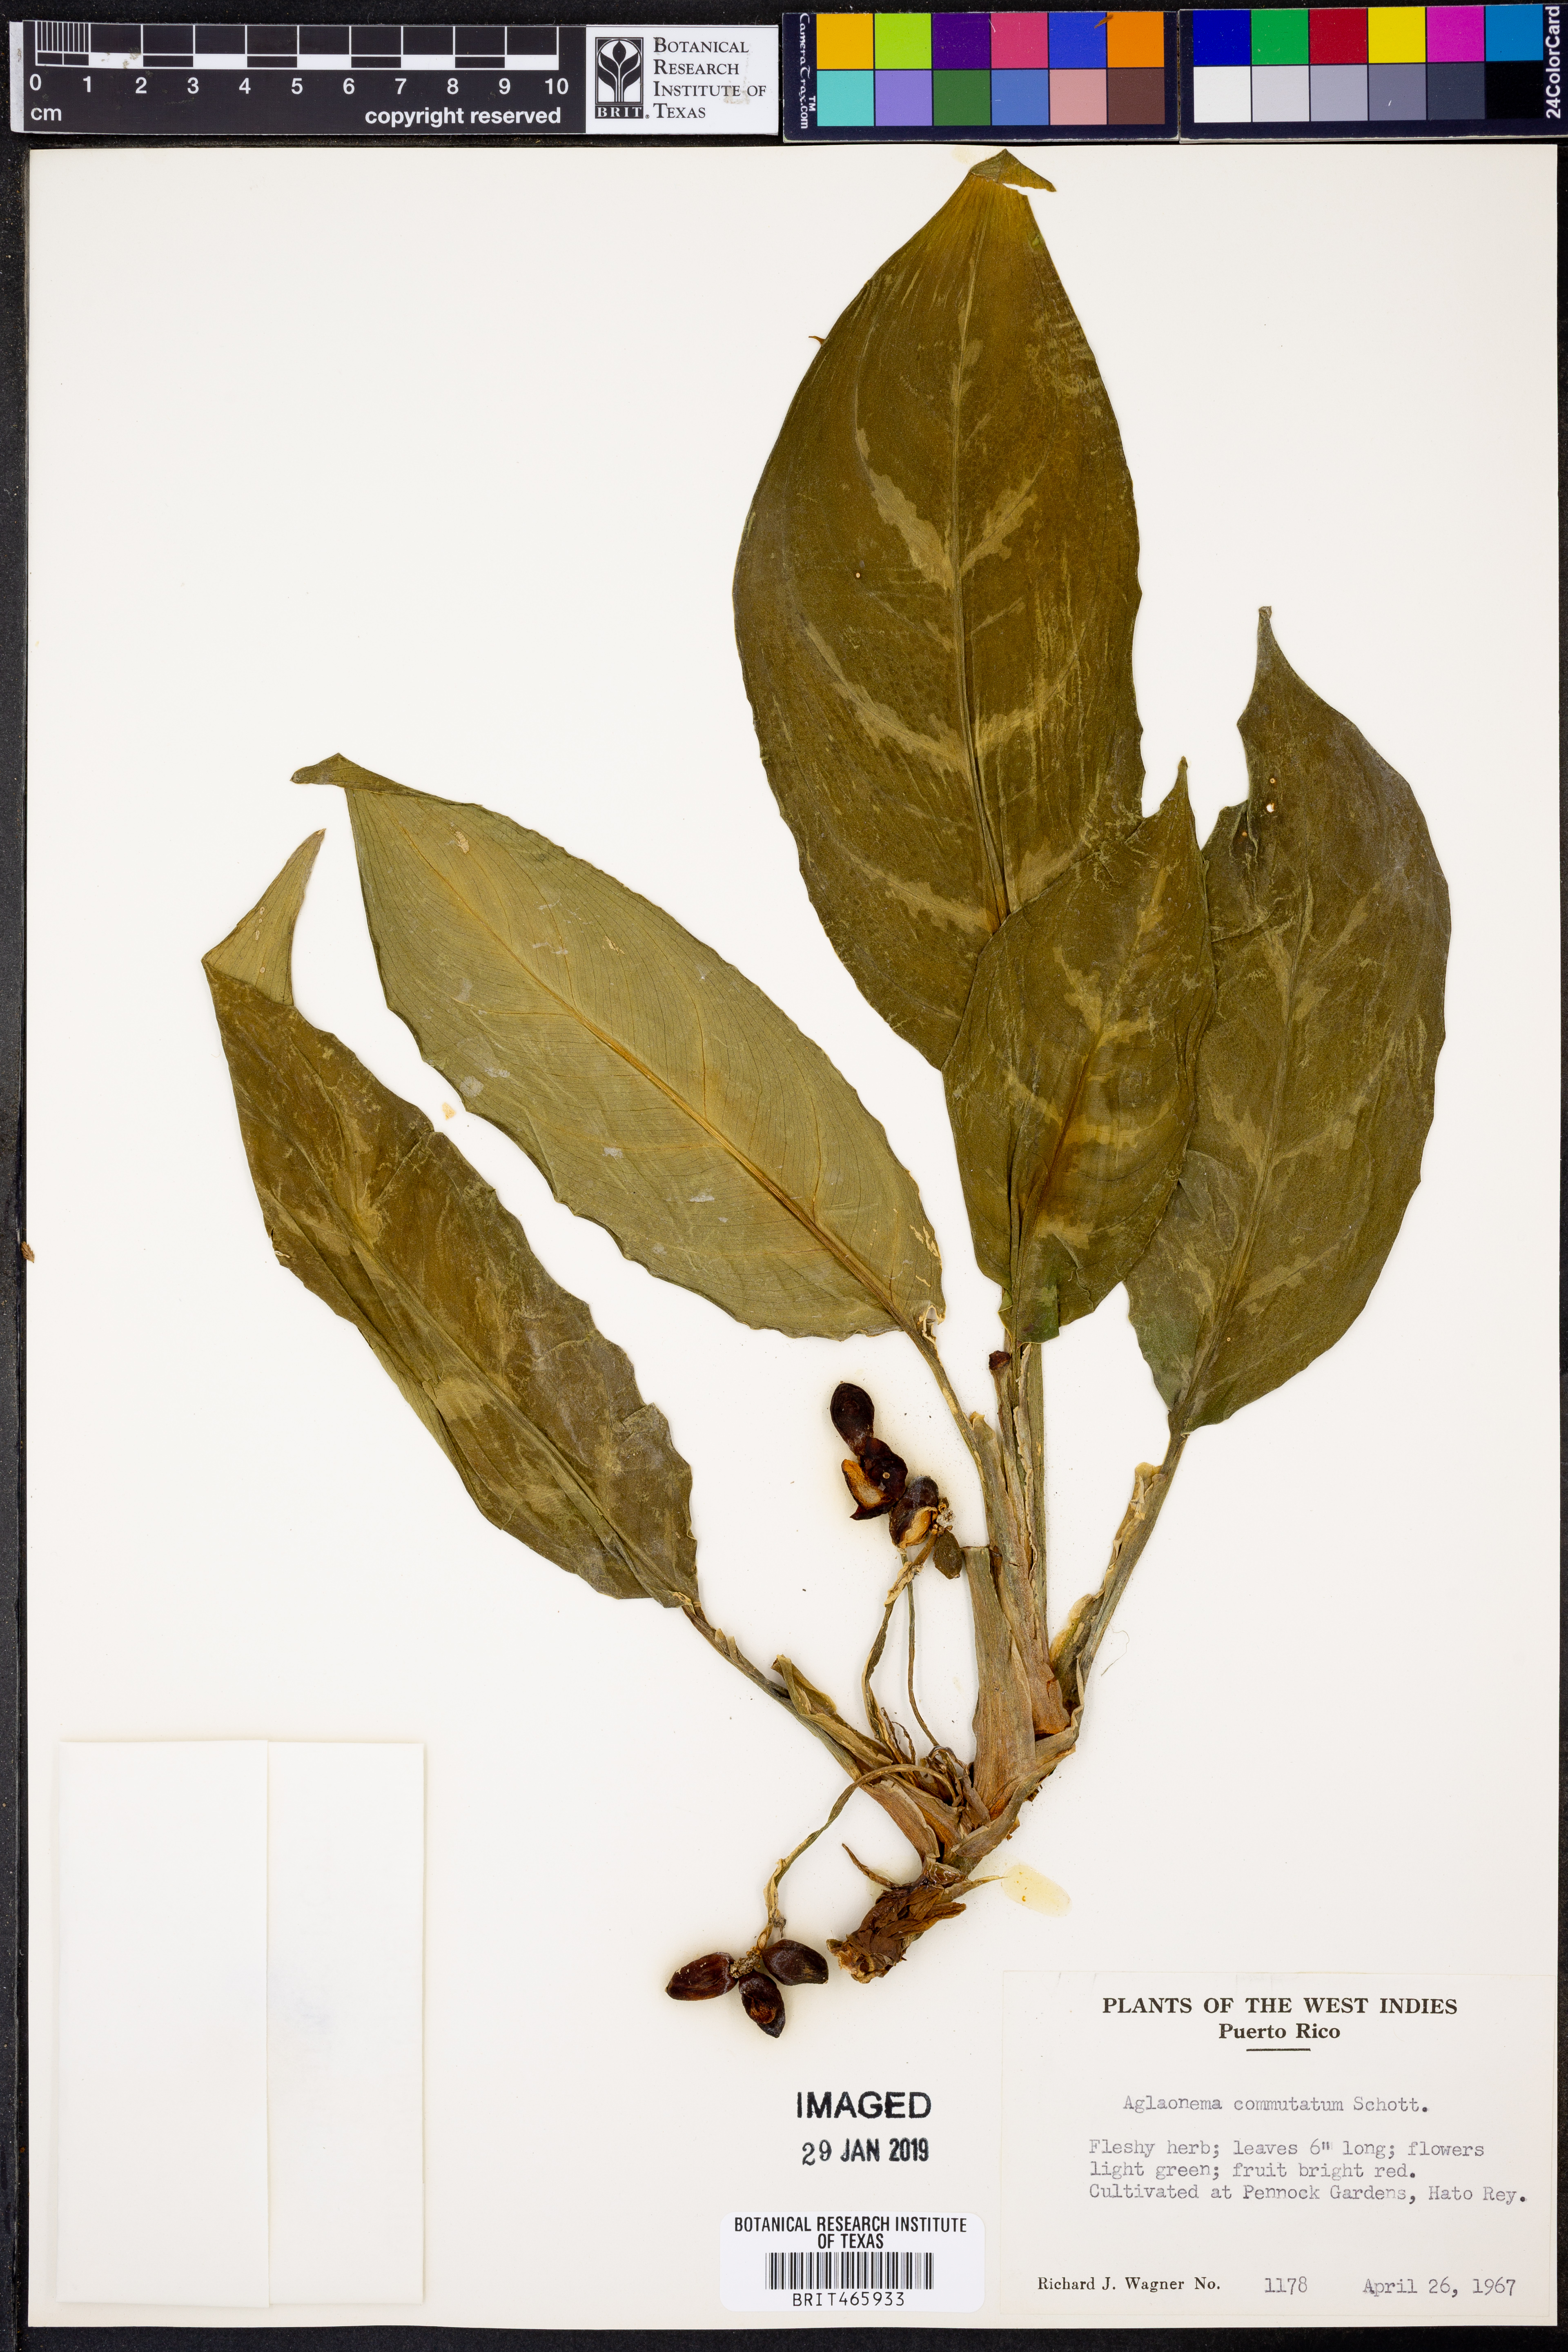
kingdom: Plantae
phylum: Tracheophyta
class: Liliopsida
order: Alismatales
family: Araceae
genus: Aglaonema
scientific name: Aglaonema commutatum
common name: Philippine evergreen
